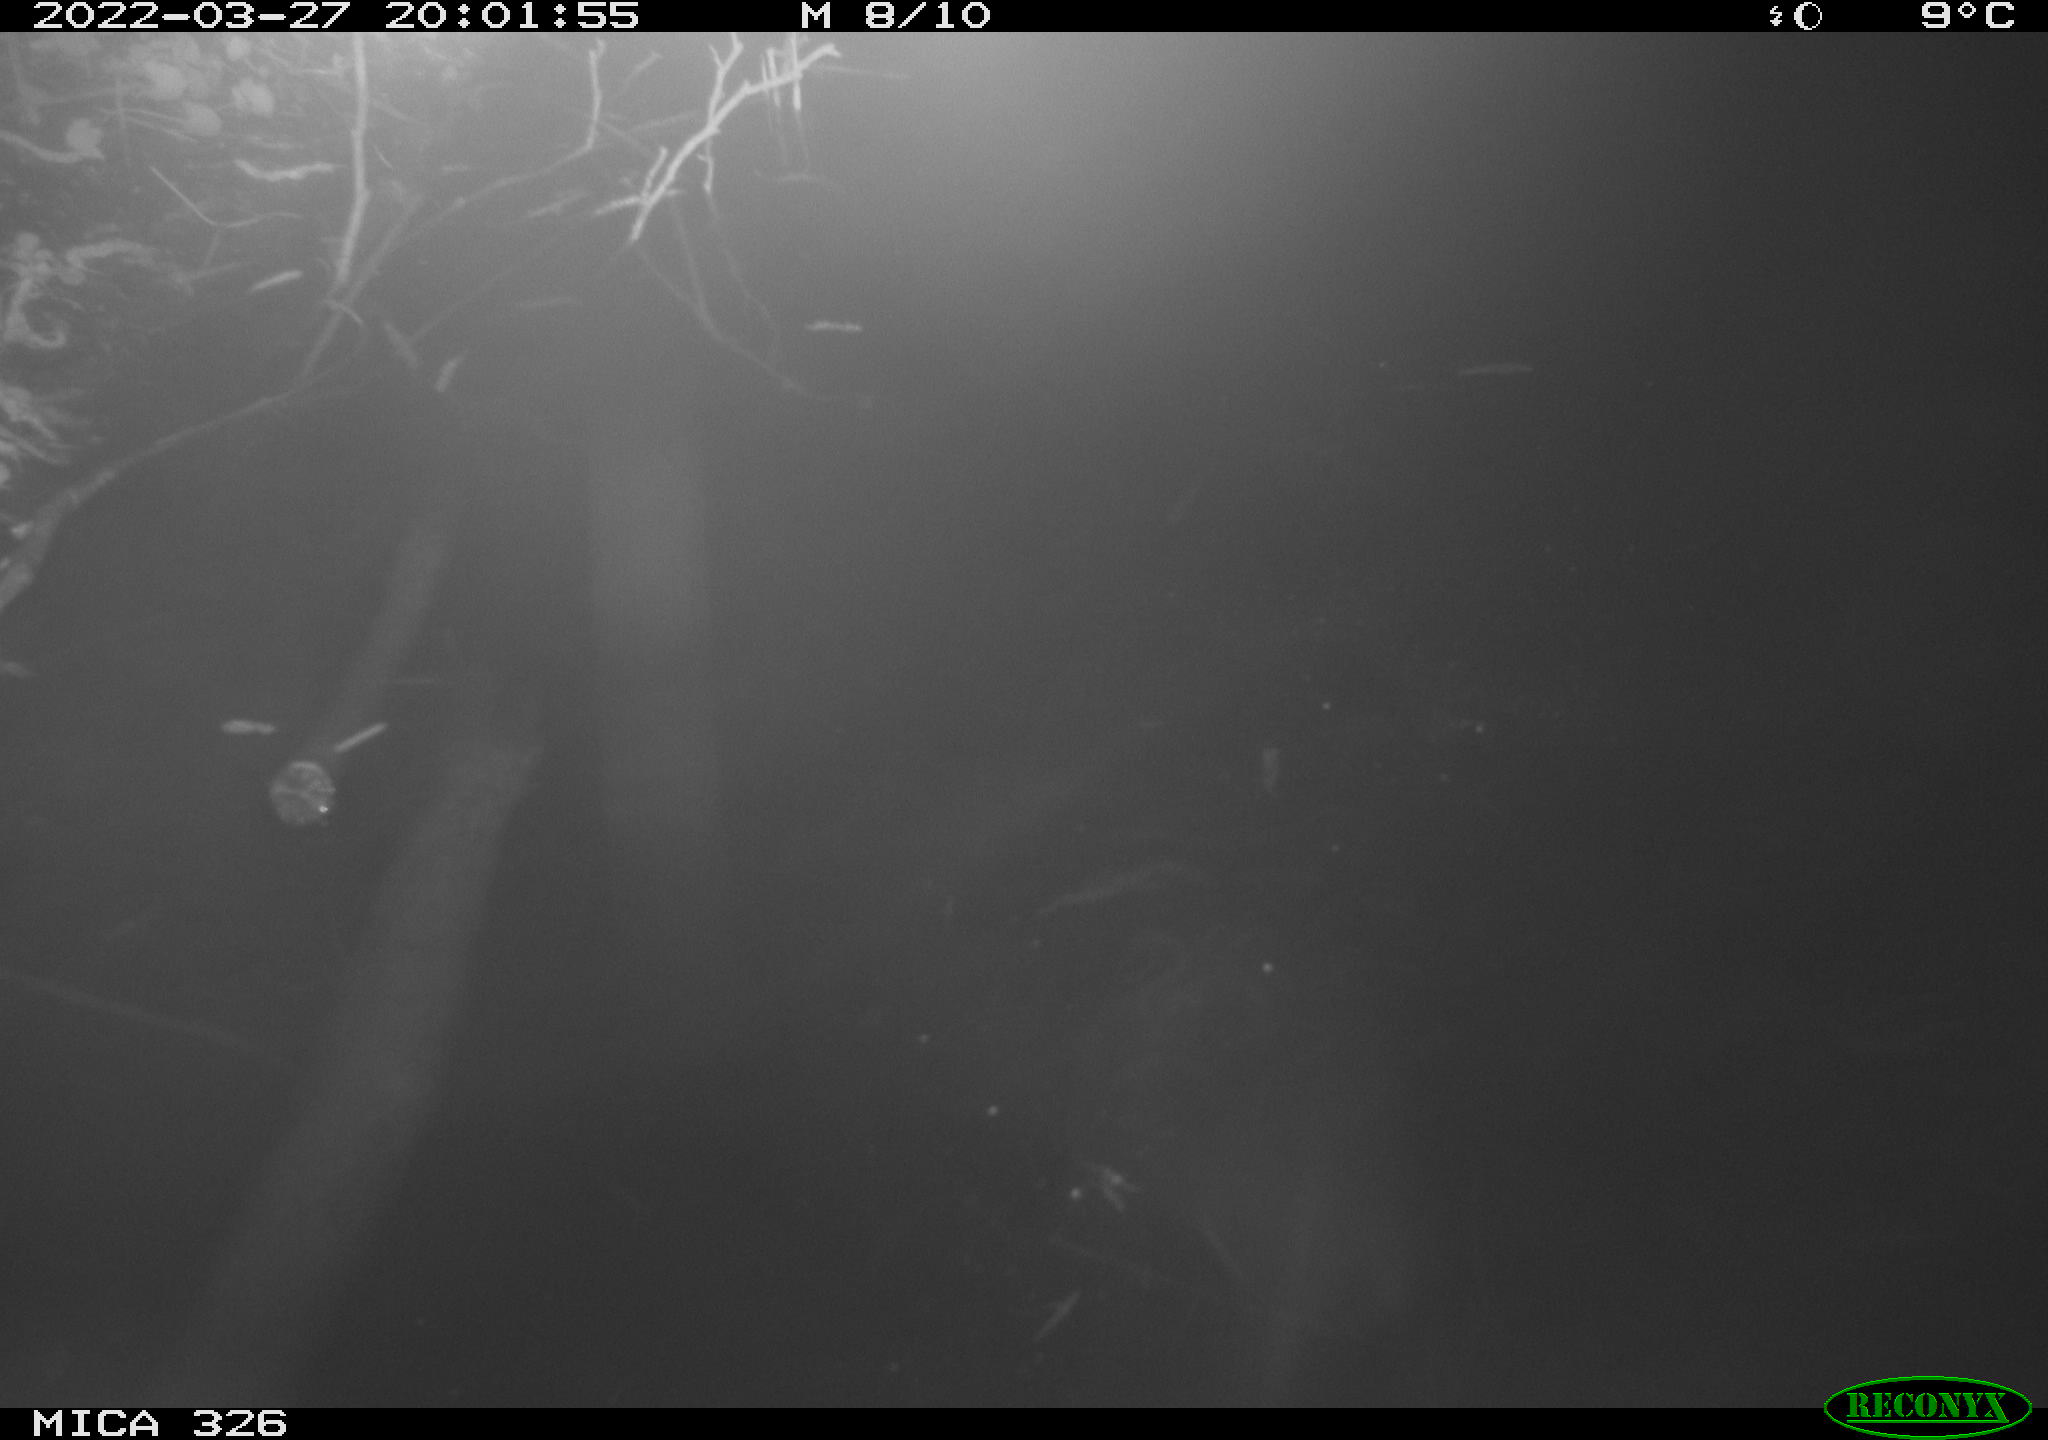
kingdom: Animalia
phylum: Chordata
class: Mammalia
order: Rodentia
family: Cricetidae
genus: Ondatra
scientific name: Ondatra zibethicus
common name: Muskrat
